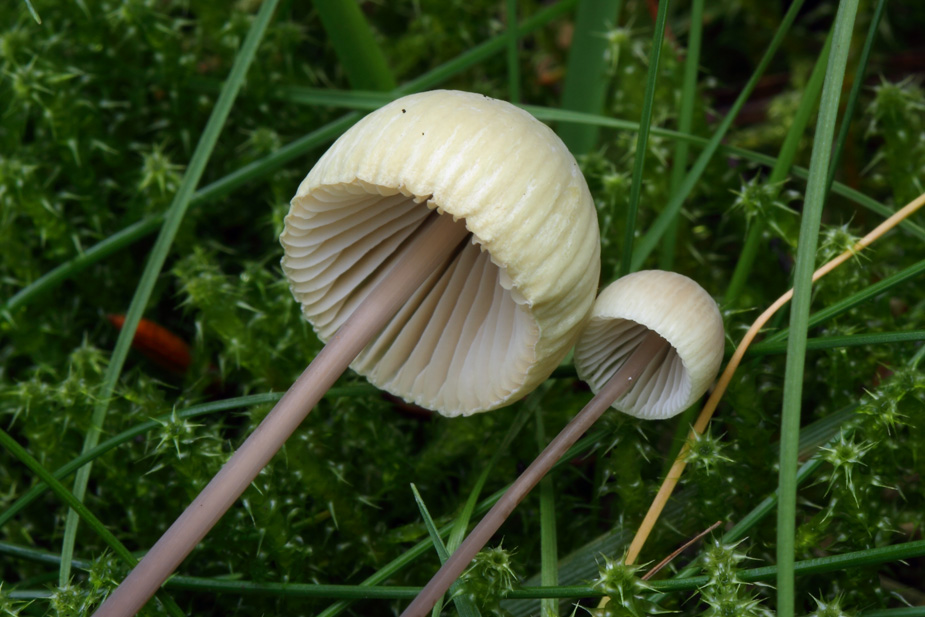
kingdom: Fungi
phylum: Basidiomycota
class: Agaricomycetes
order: Agaricales
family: Mycenaceae
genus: Mycena
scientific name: Mycena arcangeliana
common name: oliven-huesvamp
